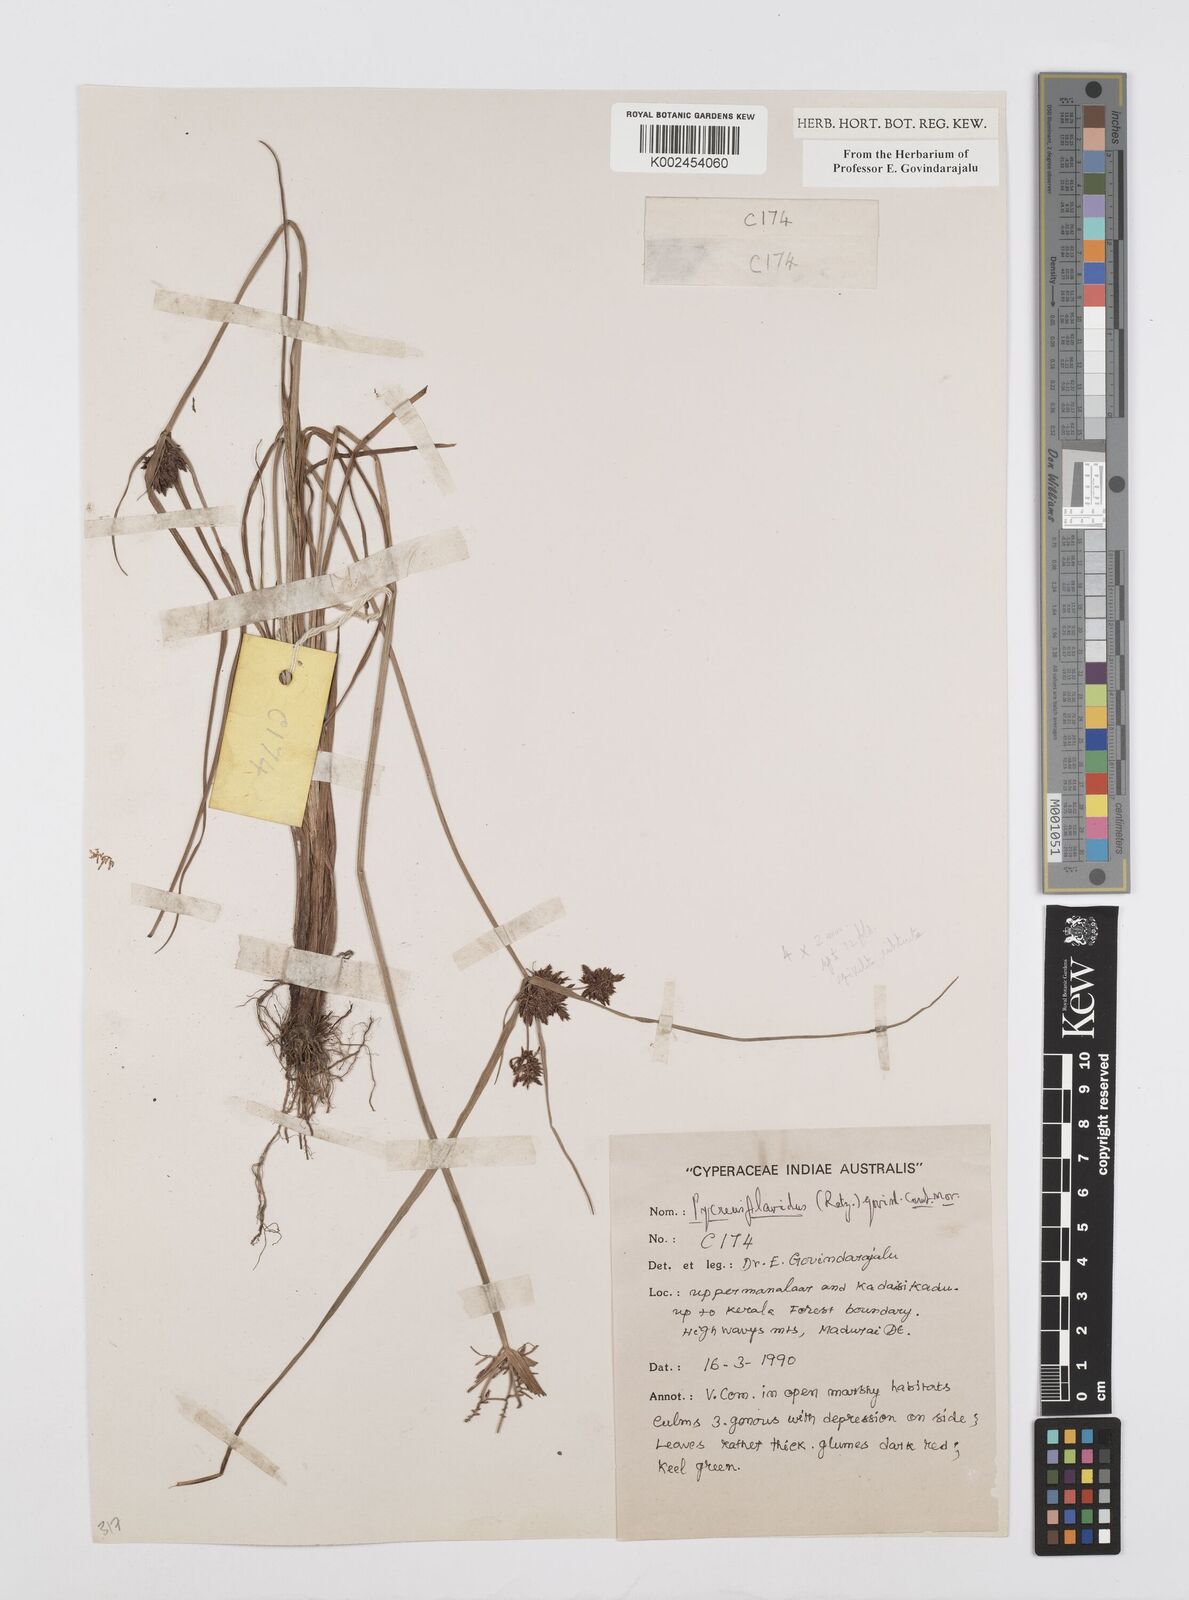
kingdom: Plantae
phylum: Tracheophyta
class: Liliopsida
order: Poales
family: Cyperaceae
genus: Cyperus
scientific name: Cyperus flavidus
